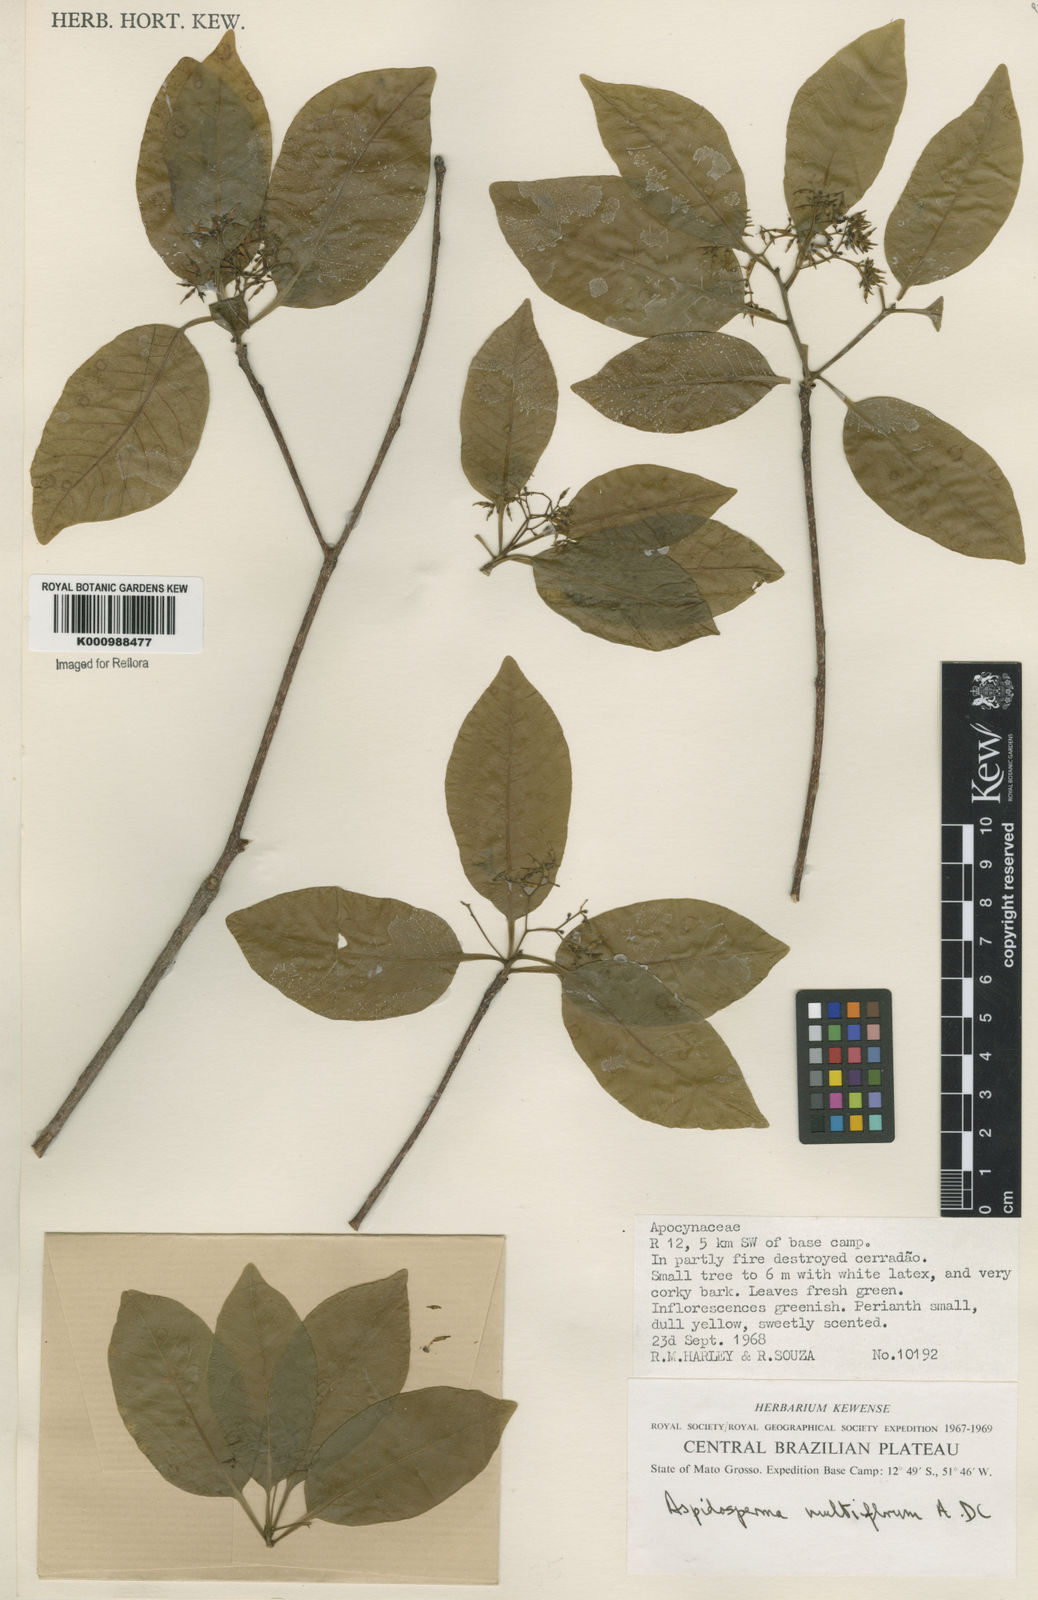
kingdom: Plantae
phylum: Tracheophyta
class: Magnoliopsida
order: Gentianales
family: Apocynaceae
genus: Aspidosperma
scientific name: Aspidosperma multiflorum
